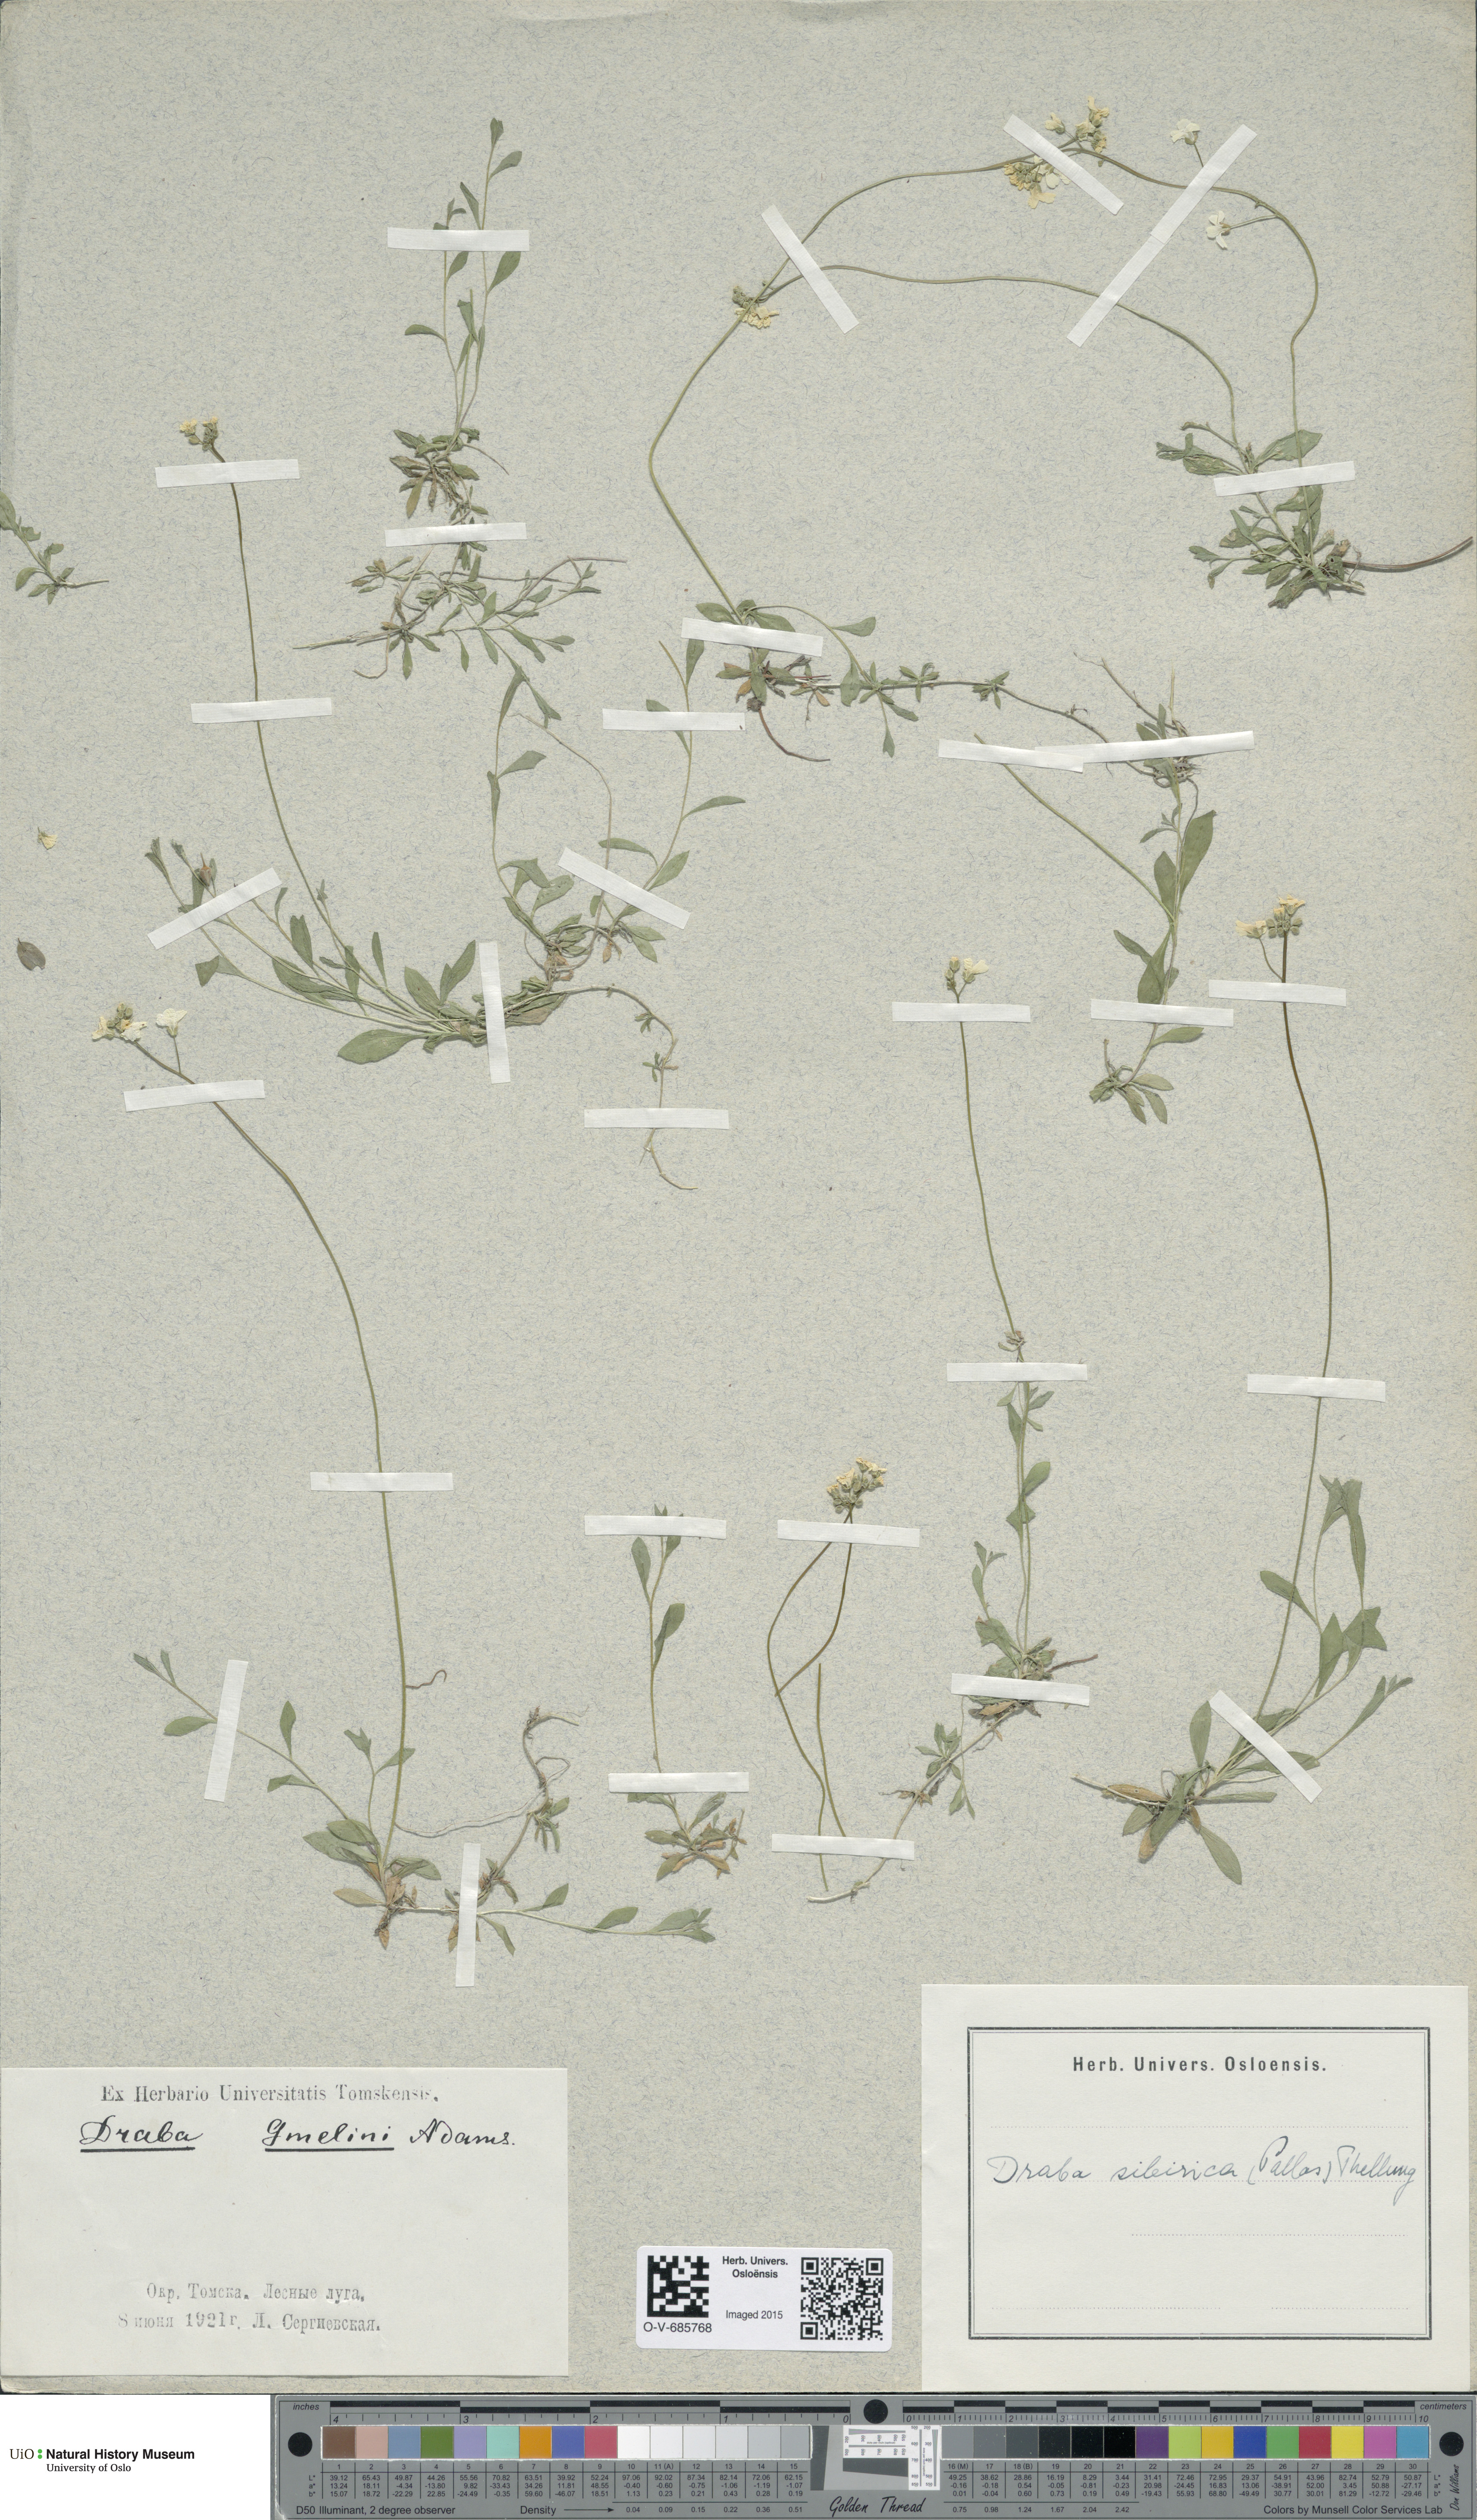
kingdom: Plantae
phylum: Tracheophyta
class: Magnoliopsida
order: Brassicales
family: Brassicaceae
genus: Draba
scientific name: Draba sibirica
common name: Siberian draba
